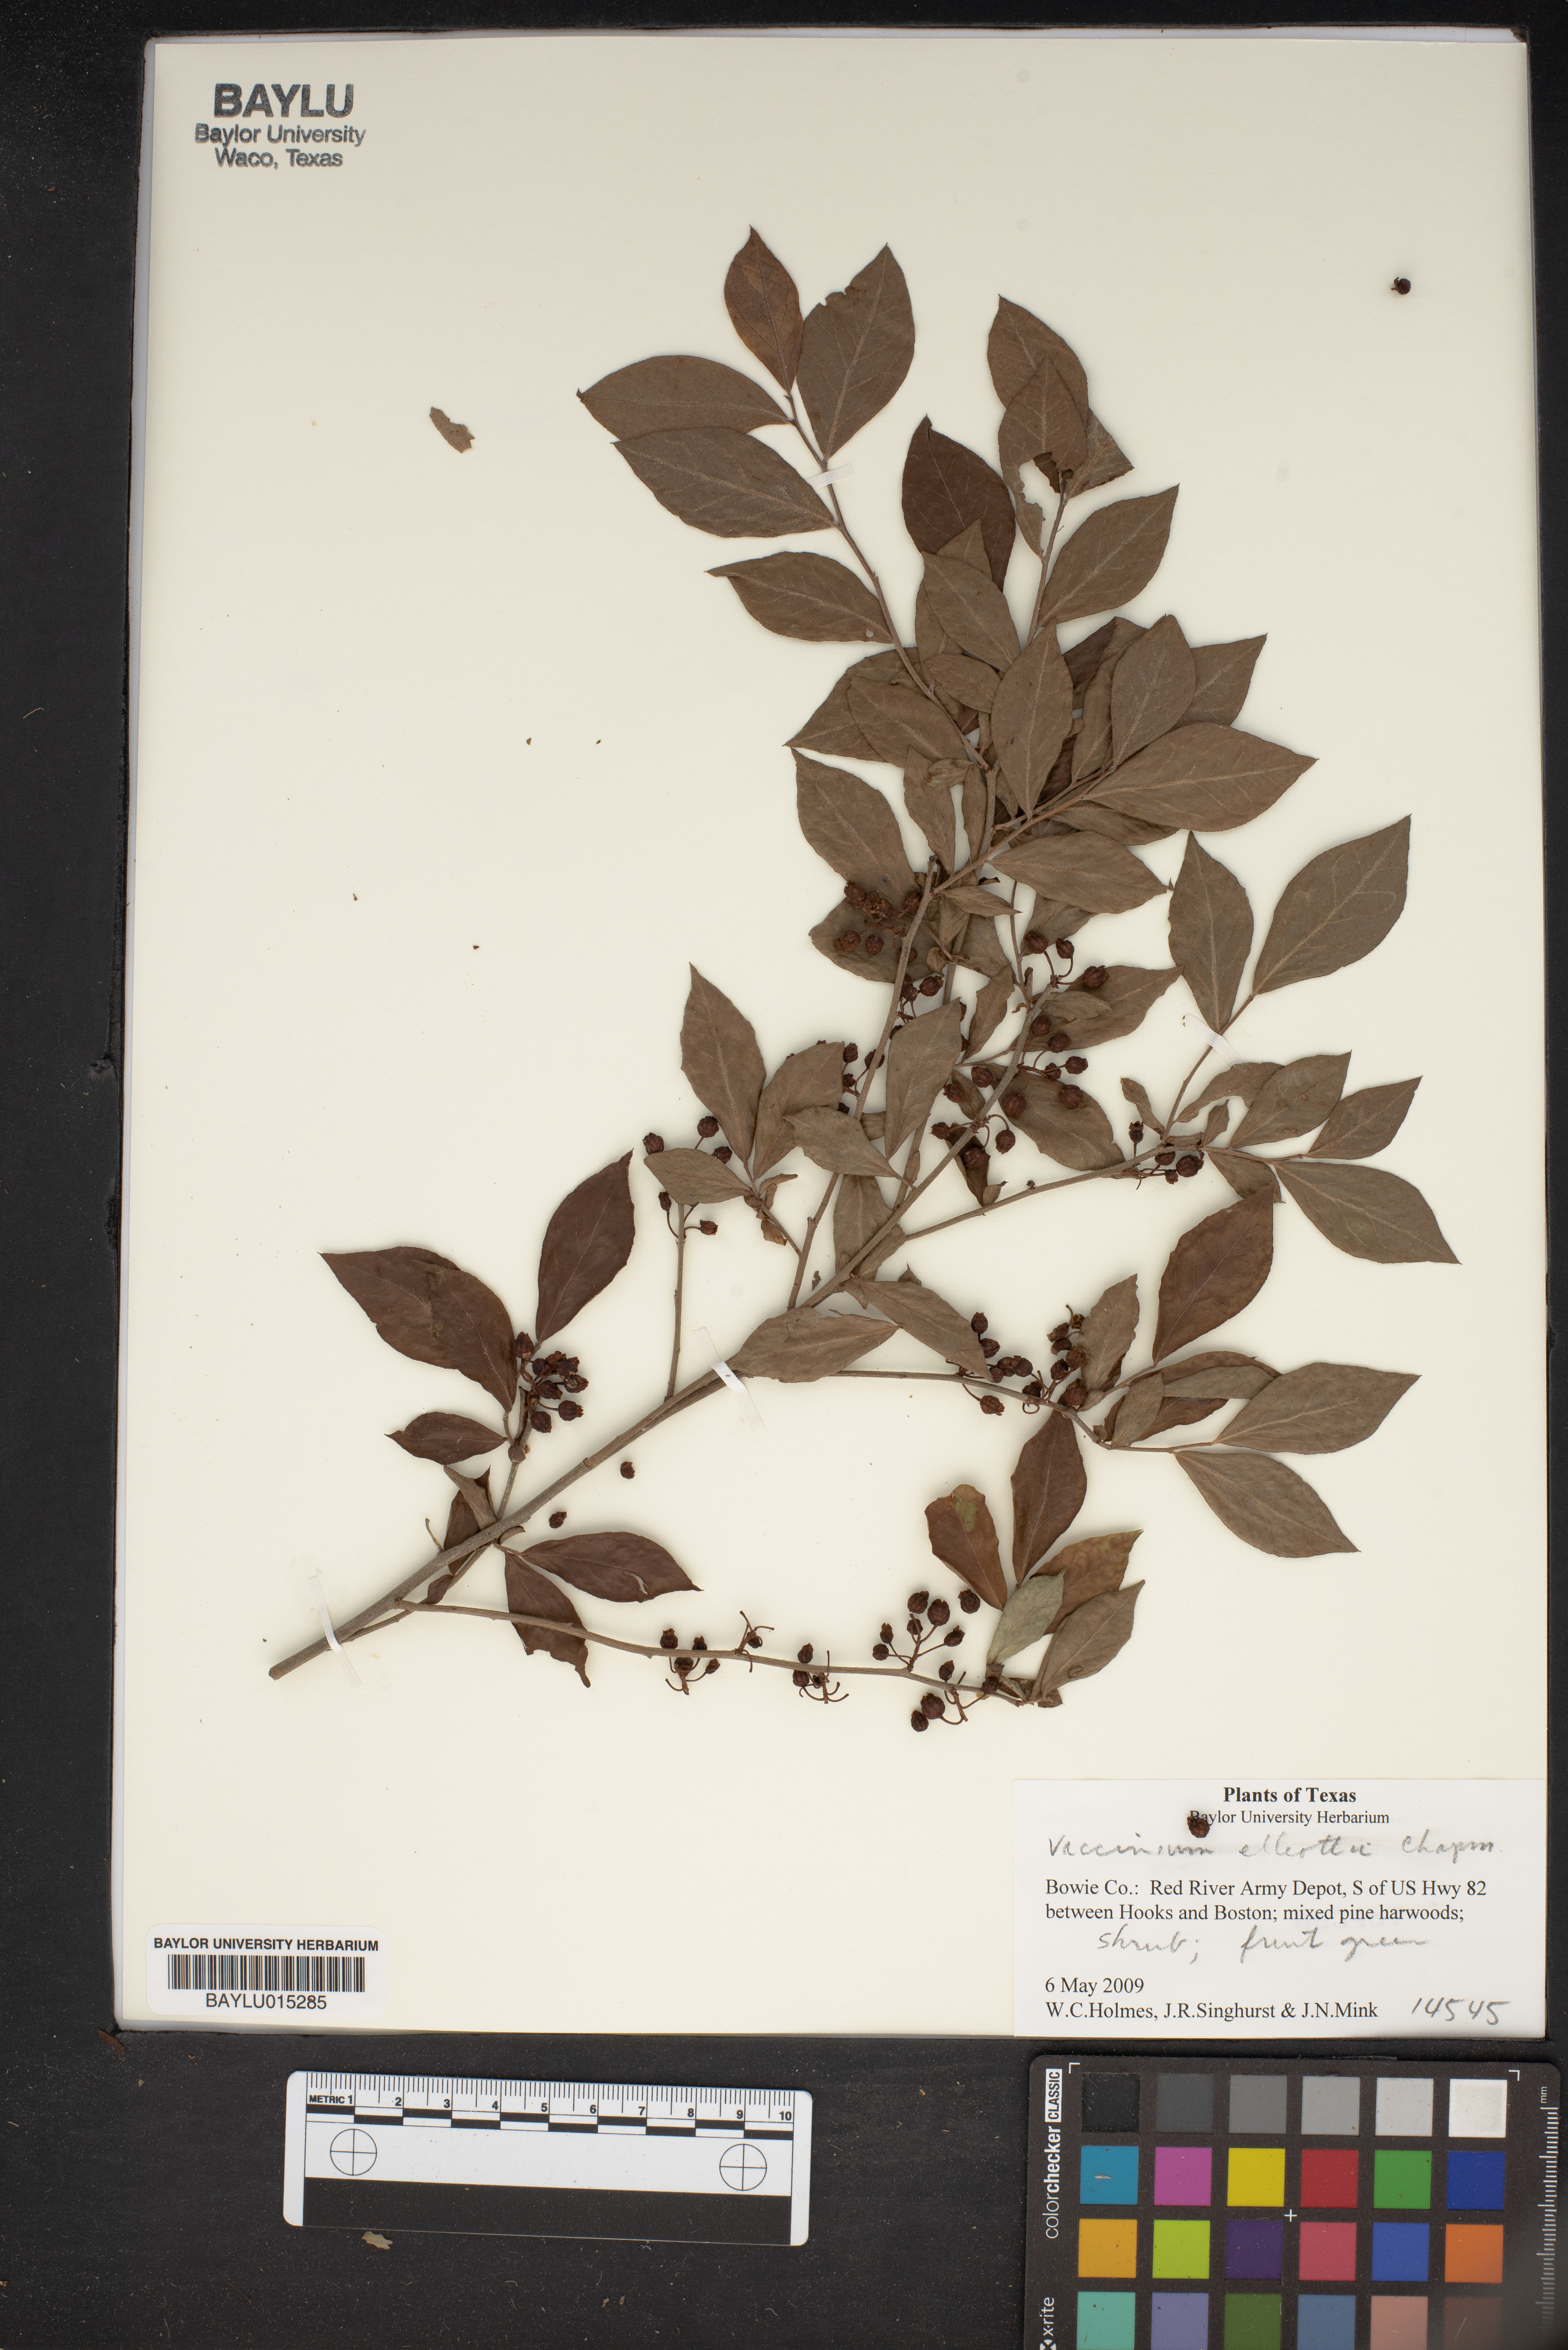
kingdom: Plantae
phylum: Tracheophyta
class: Magnoliopsida
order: Ericales
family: Ericaceae
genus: Vaccinium
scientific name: Vaccinium corymbosum
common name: Blueberry
